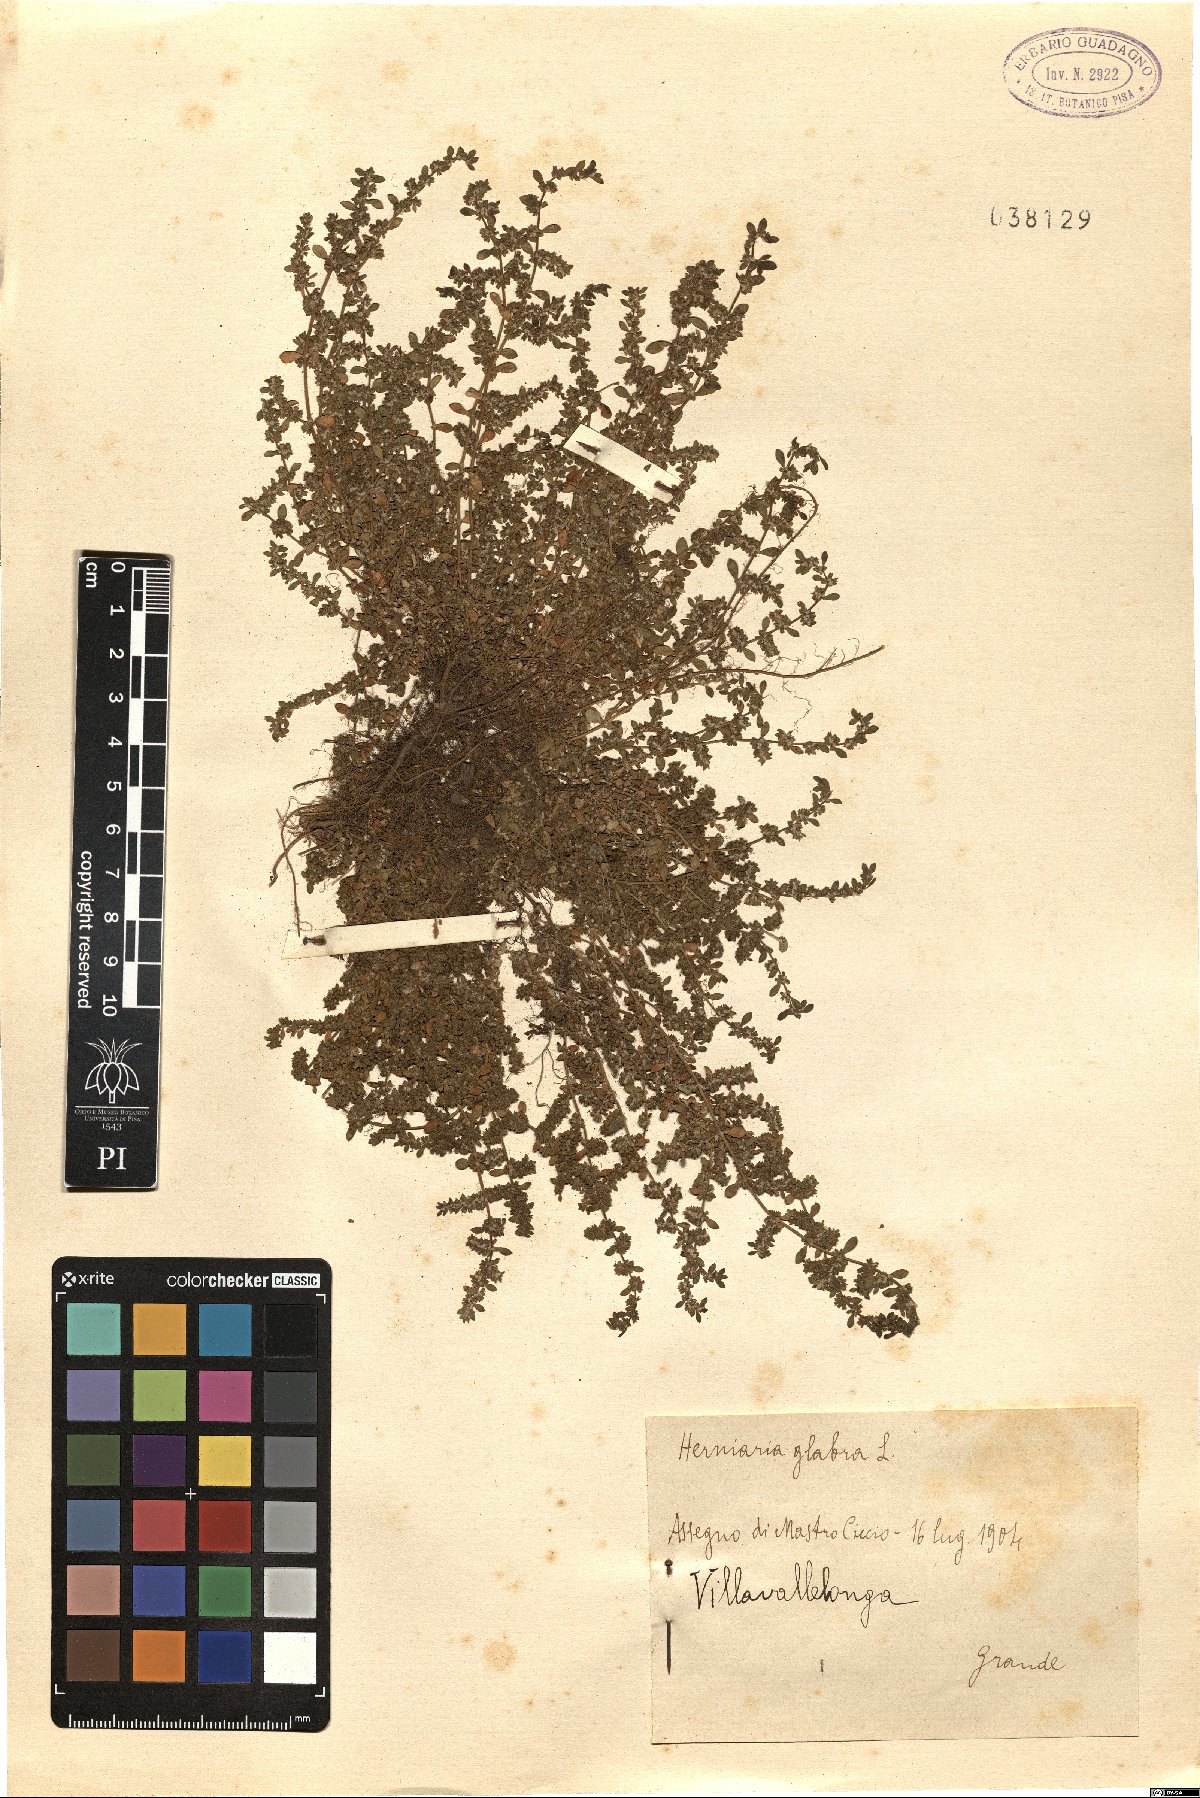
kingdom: Plantae
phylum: Tracheophyta
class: Magnoliopsida
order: Caryophyllales
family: Caryophyllaceae
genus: Herniaria
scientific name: Herniaria glabra
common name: Smooth rupturewort
